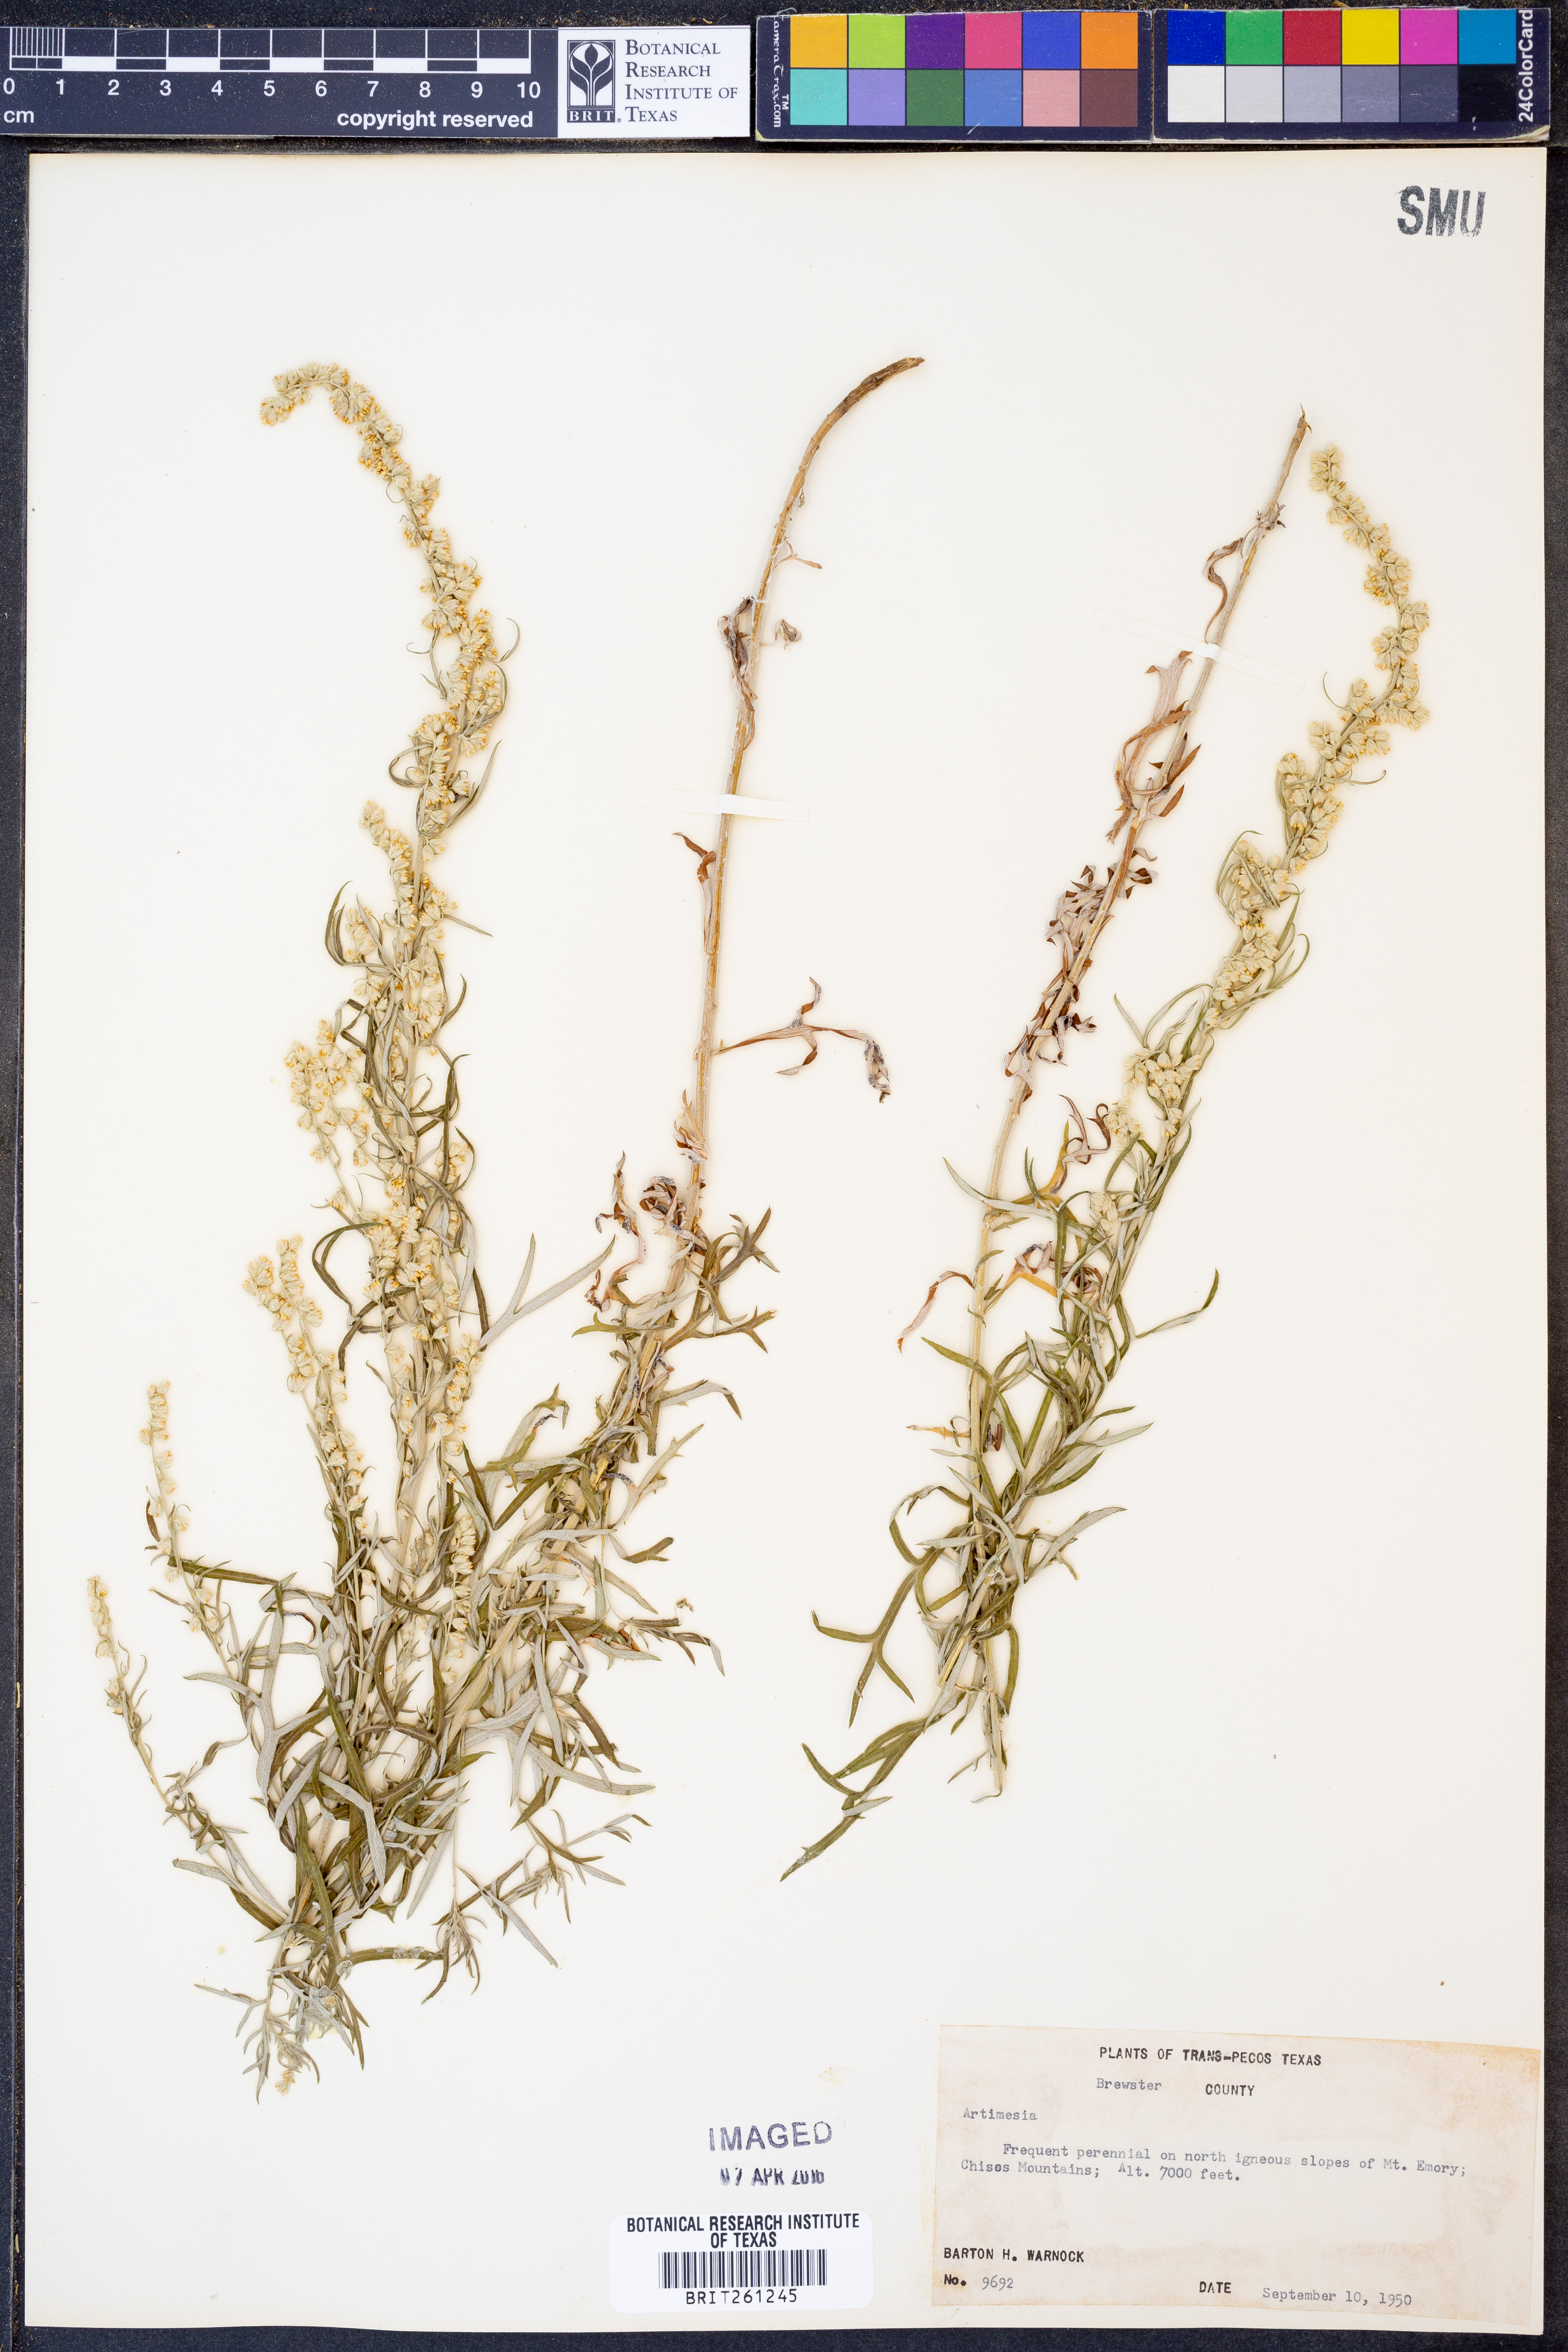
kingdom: Plantae
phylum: Tracheophyta
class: Magnoliopsida
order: Asterales
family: Asteraceae
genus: Artemisia
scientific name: Artemisia
